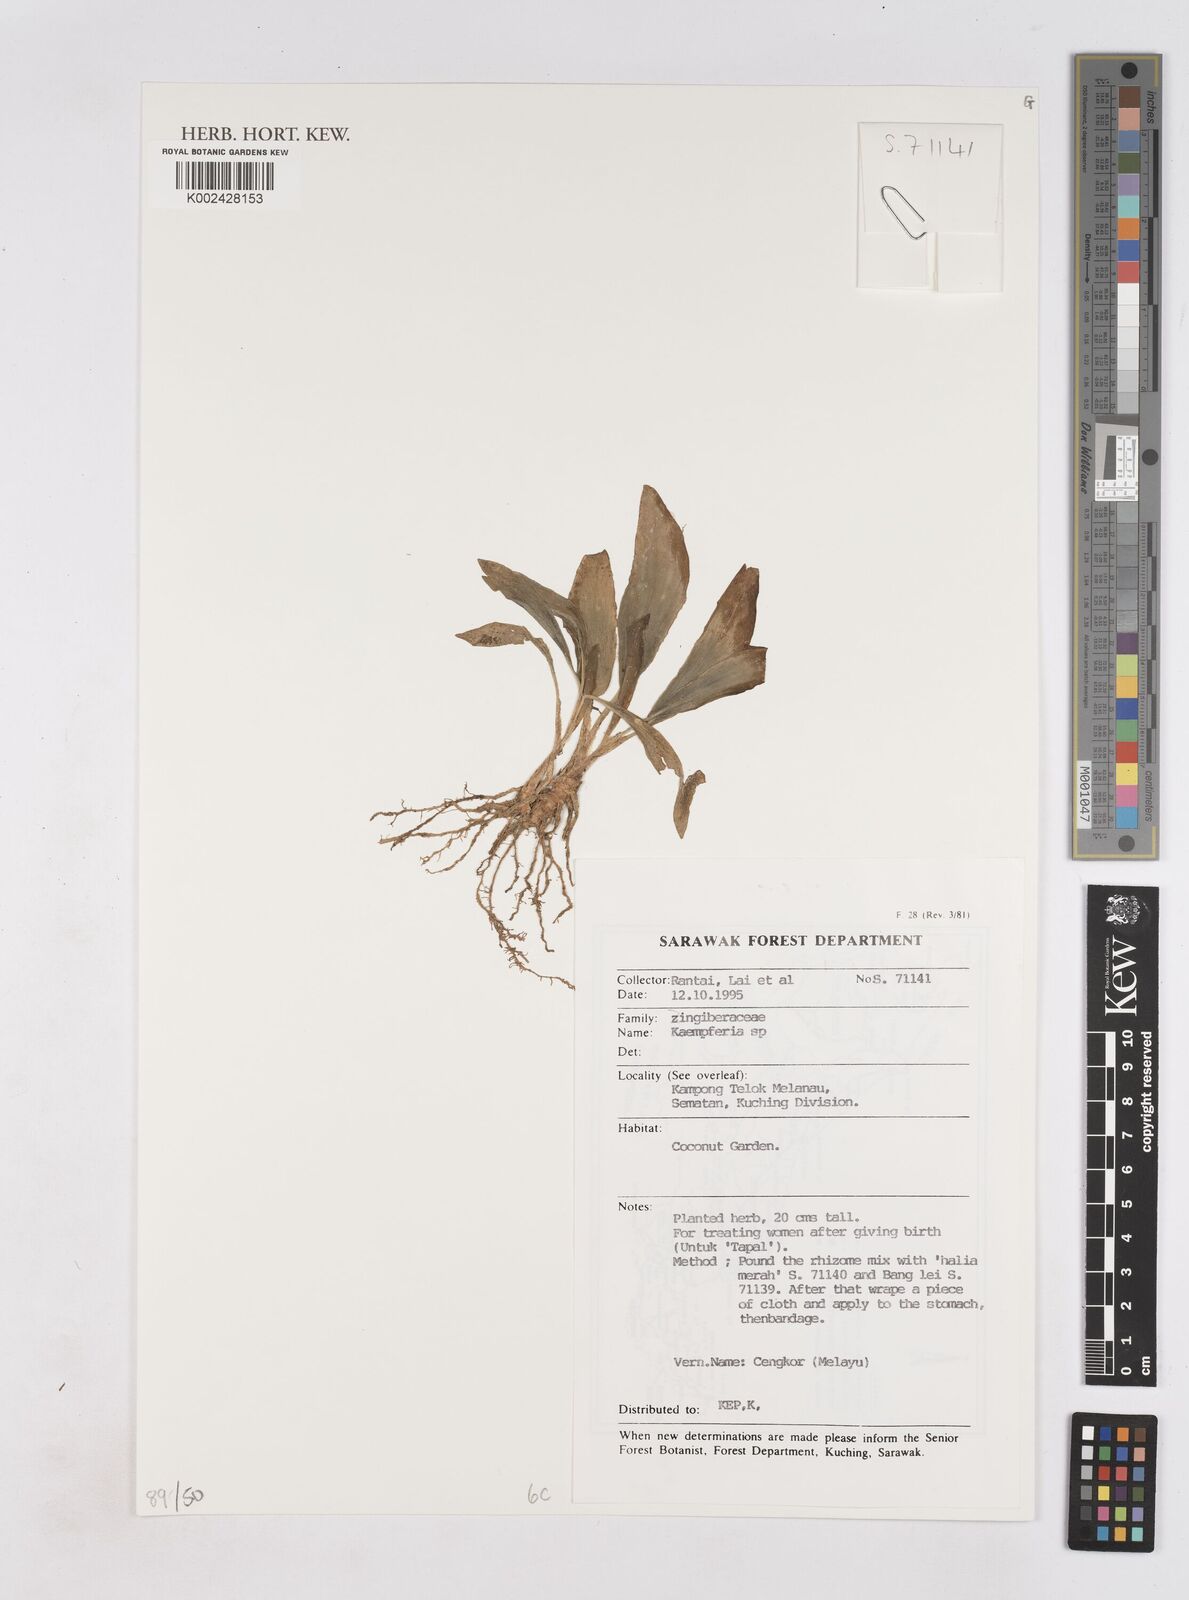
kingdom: Plantae
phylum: Tracheophyta
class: Liliopsida
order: Zingiberales
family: Zingiberaceae
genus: Kaempferia
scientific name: Kaempferia
